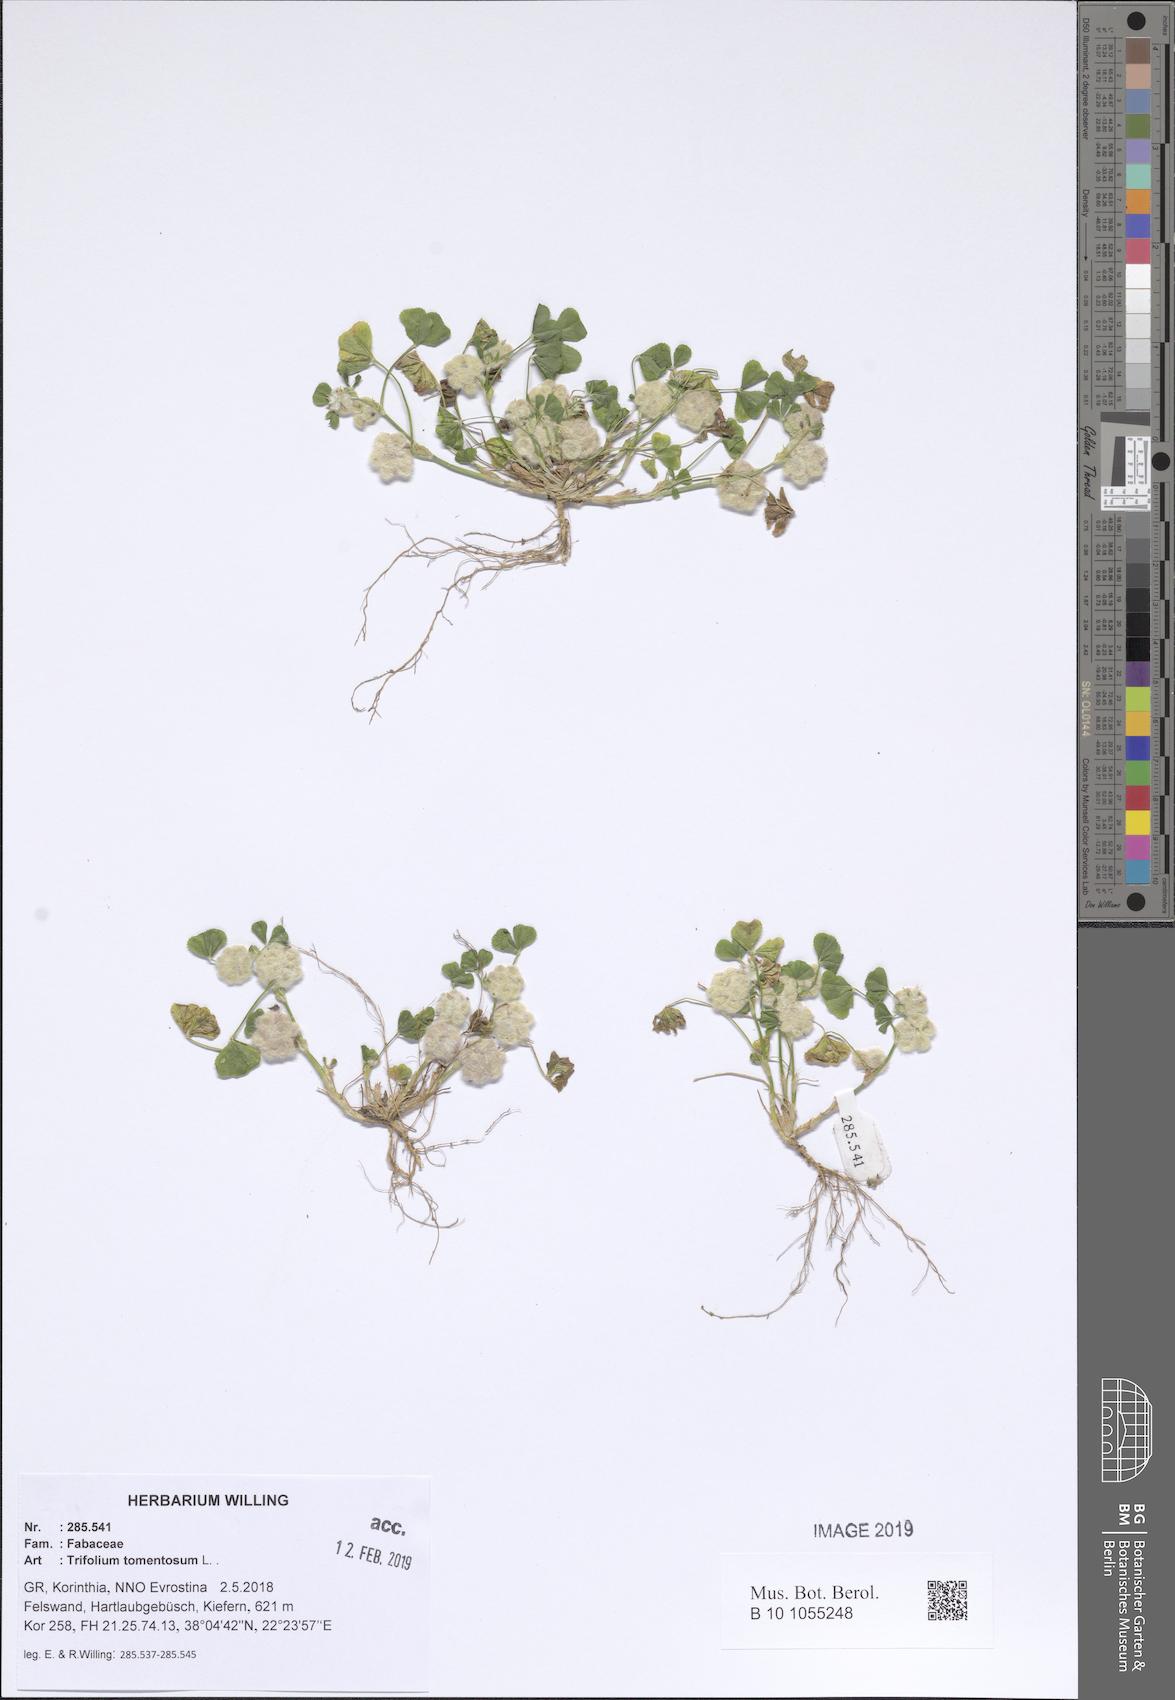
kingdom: Plantae
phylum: Tracheophyta
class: Magnoliopsida
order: Fabales
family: Fabaceae
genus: Trifolium
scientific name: Trifolium tomentosum
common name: Woolly clover
